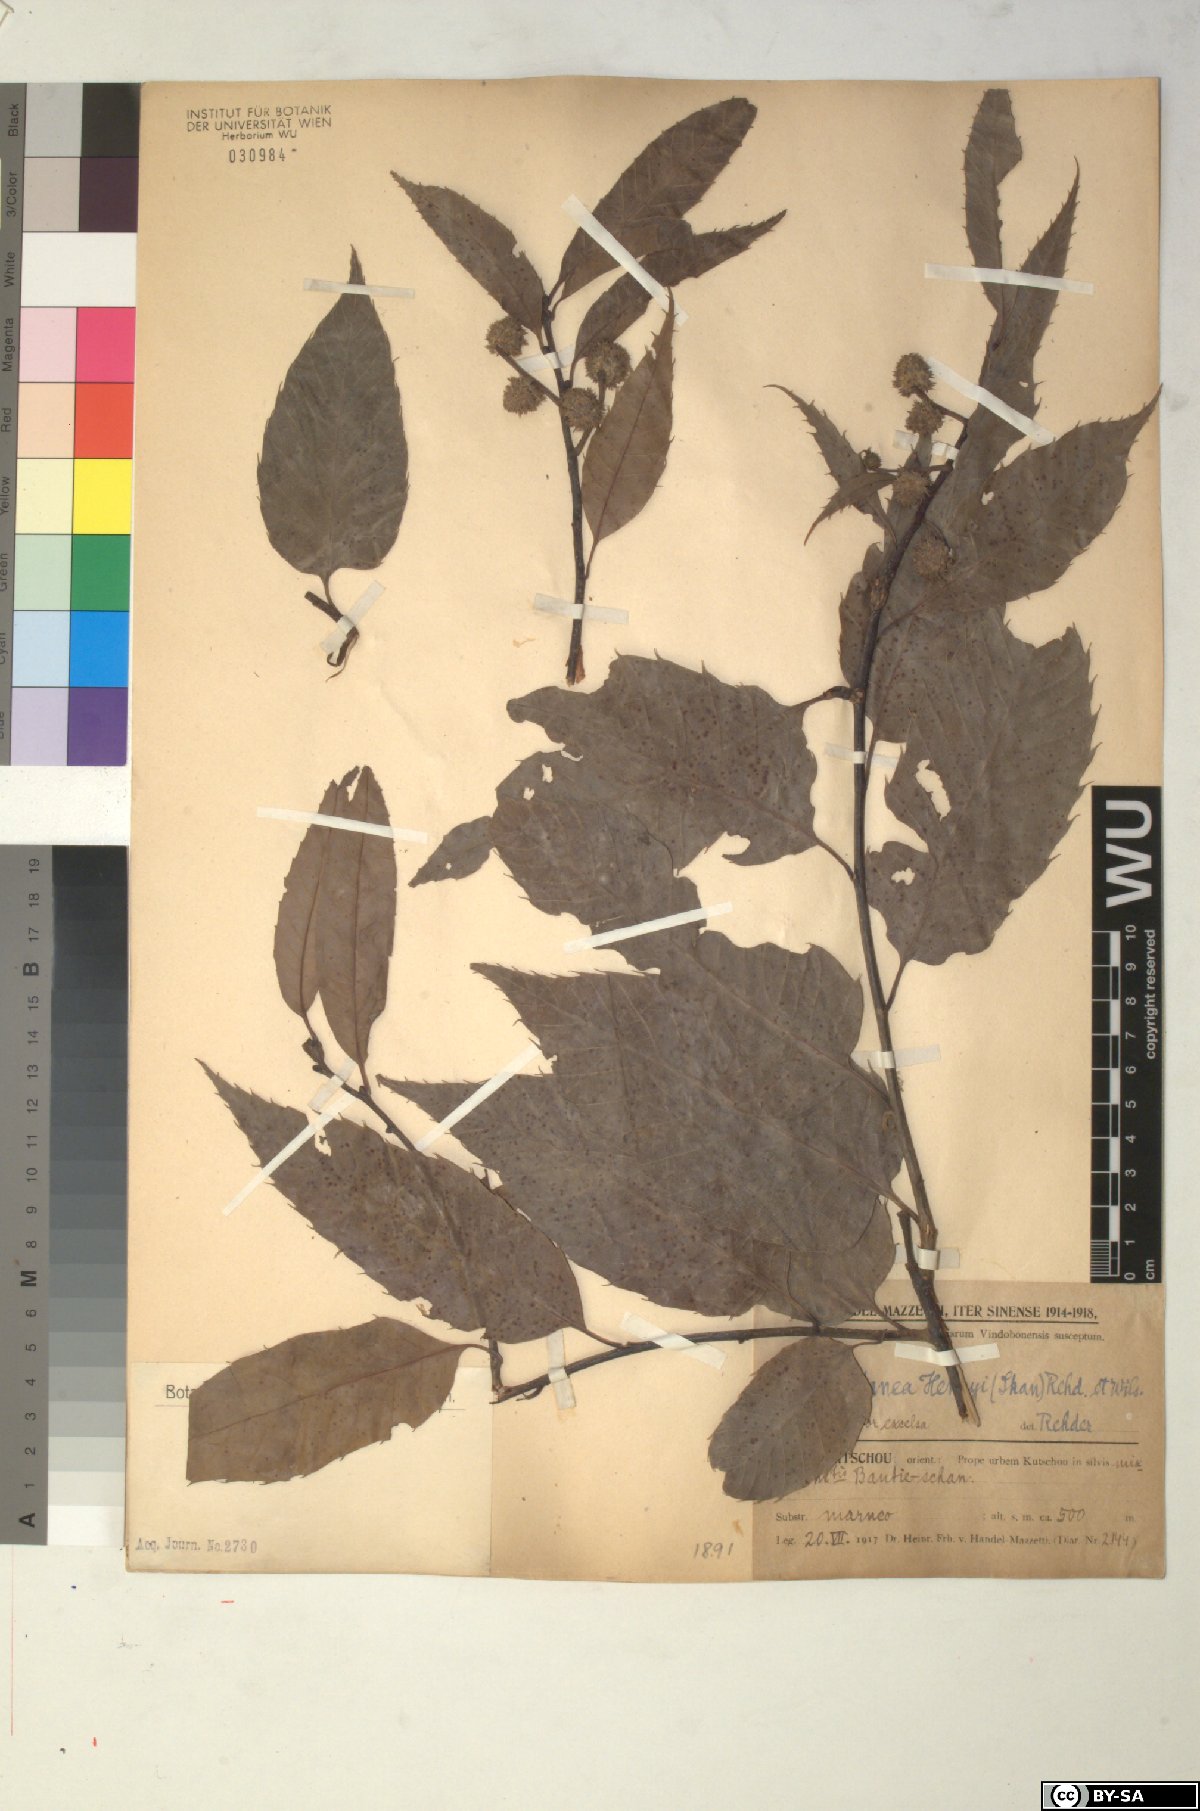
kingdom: Plantae
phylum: Tracheophyta
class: Magnoliopsida
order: Fagales
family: Fagaceae
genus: Castanea
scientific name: Castanea henryi
